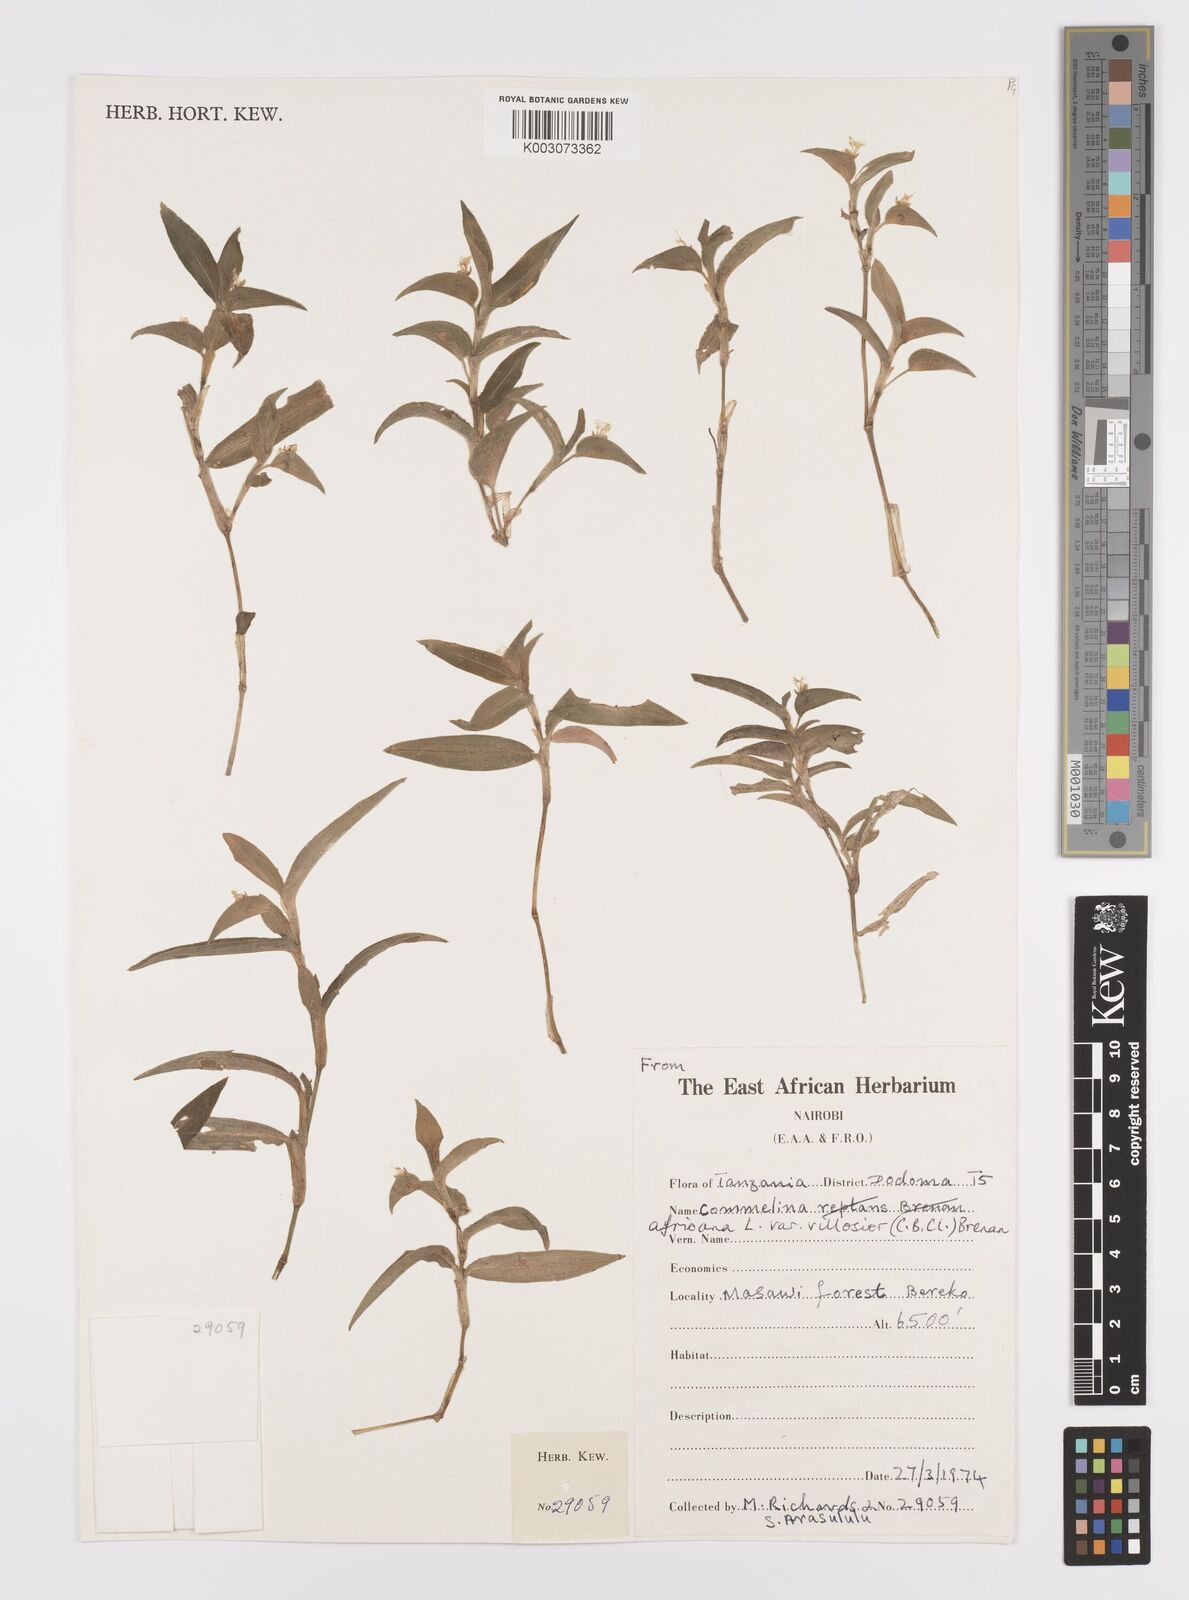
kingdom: Plantae
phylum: Tracheophyta
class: Liliopsida
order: Commelinales
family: Commelinaceae
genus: Commelina
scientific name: Commelina africana
